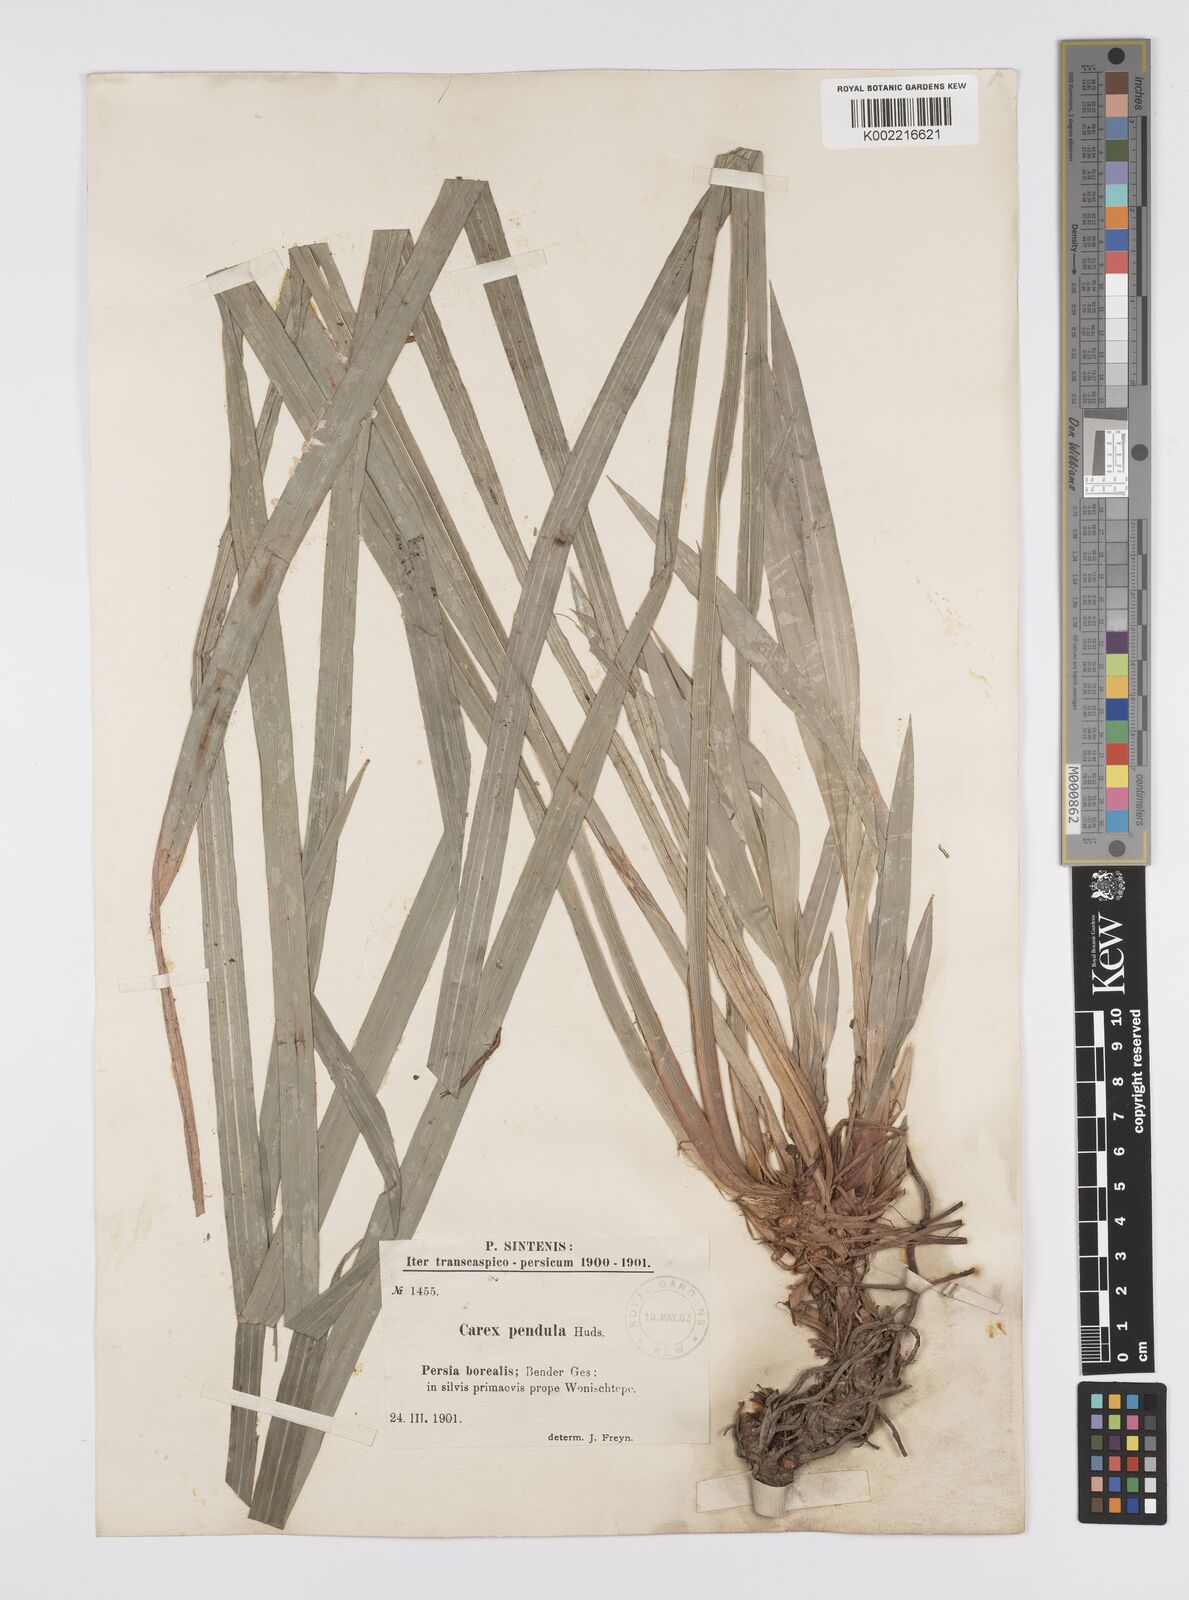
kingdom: Plantae
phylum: Tracheophyta
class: Liliopsida
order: Poales
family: Cyperaceae
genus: Carex
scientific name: Carex pendula
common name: Pendulous sedge
